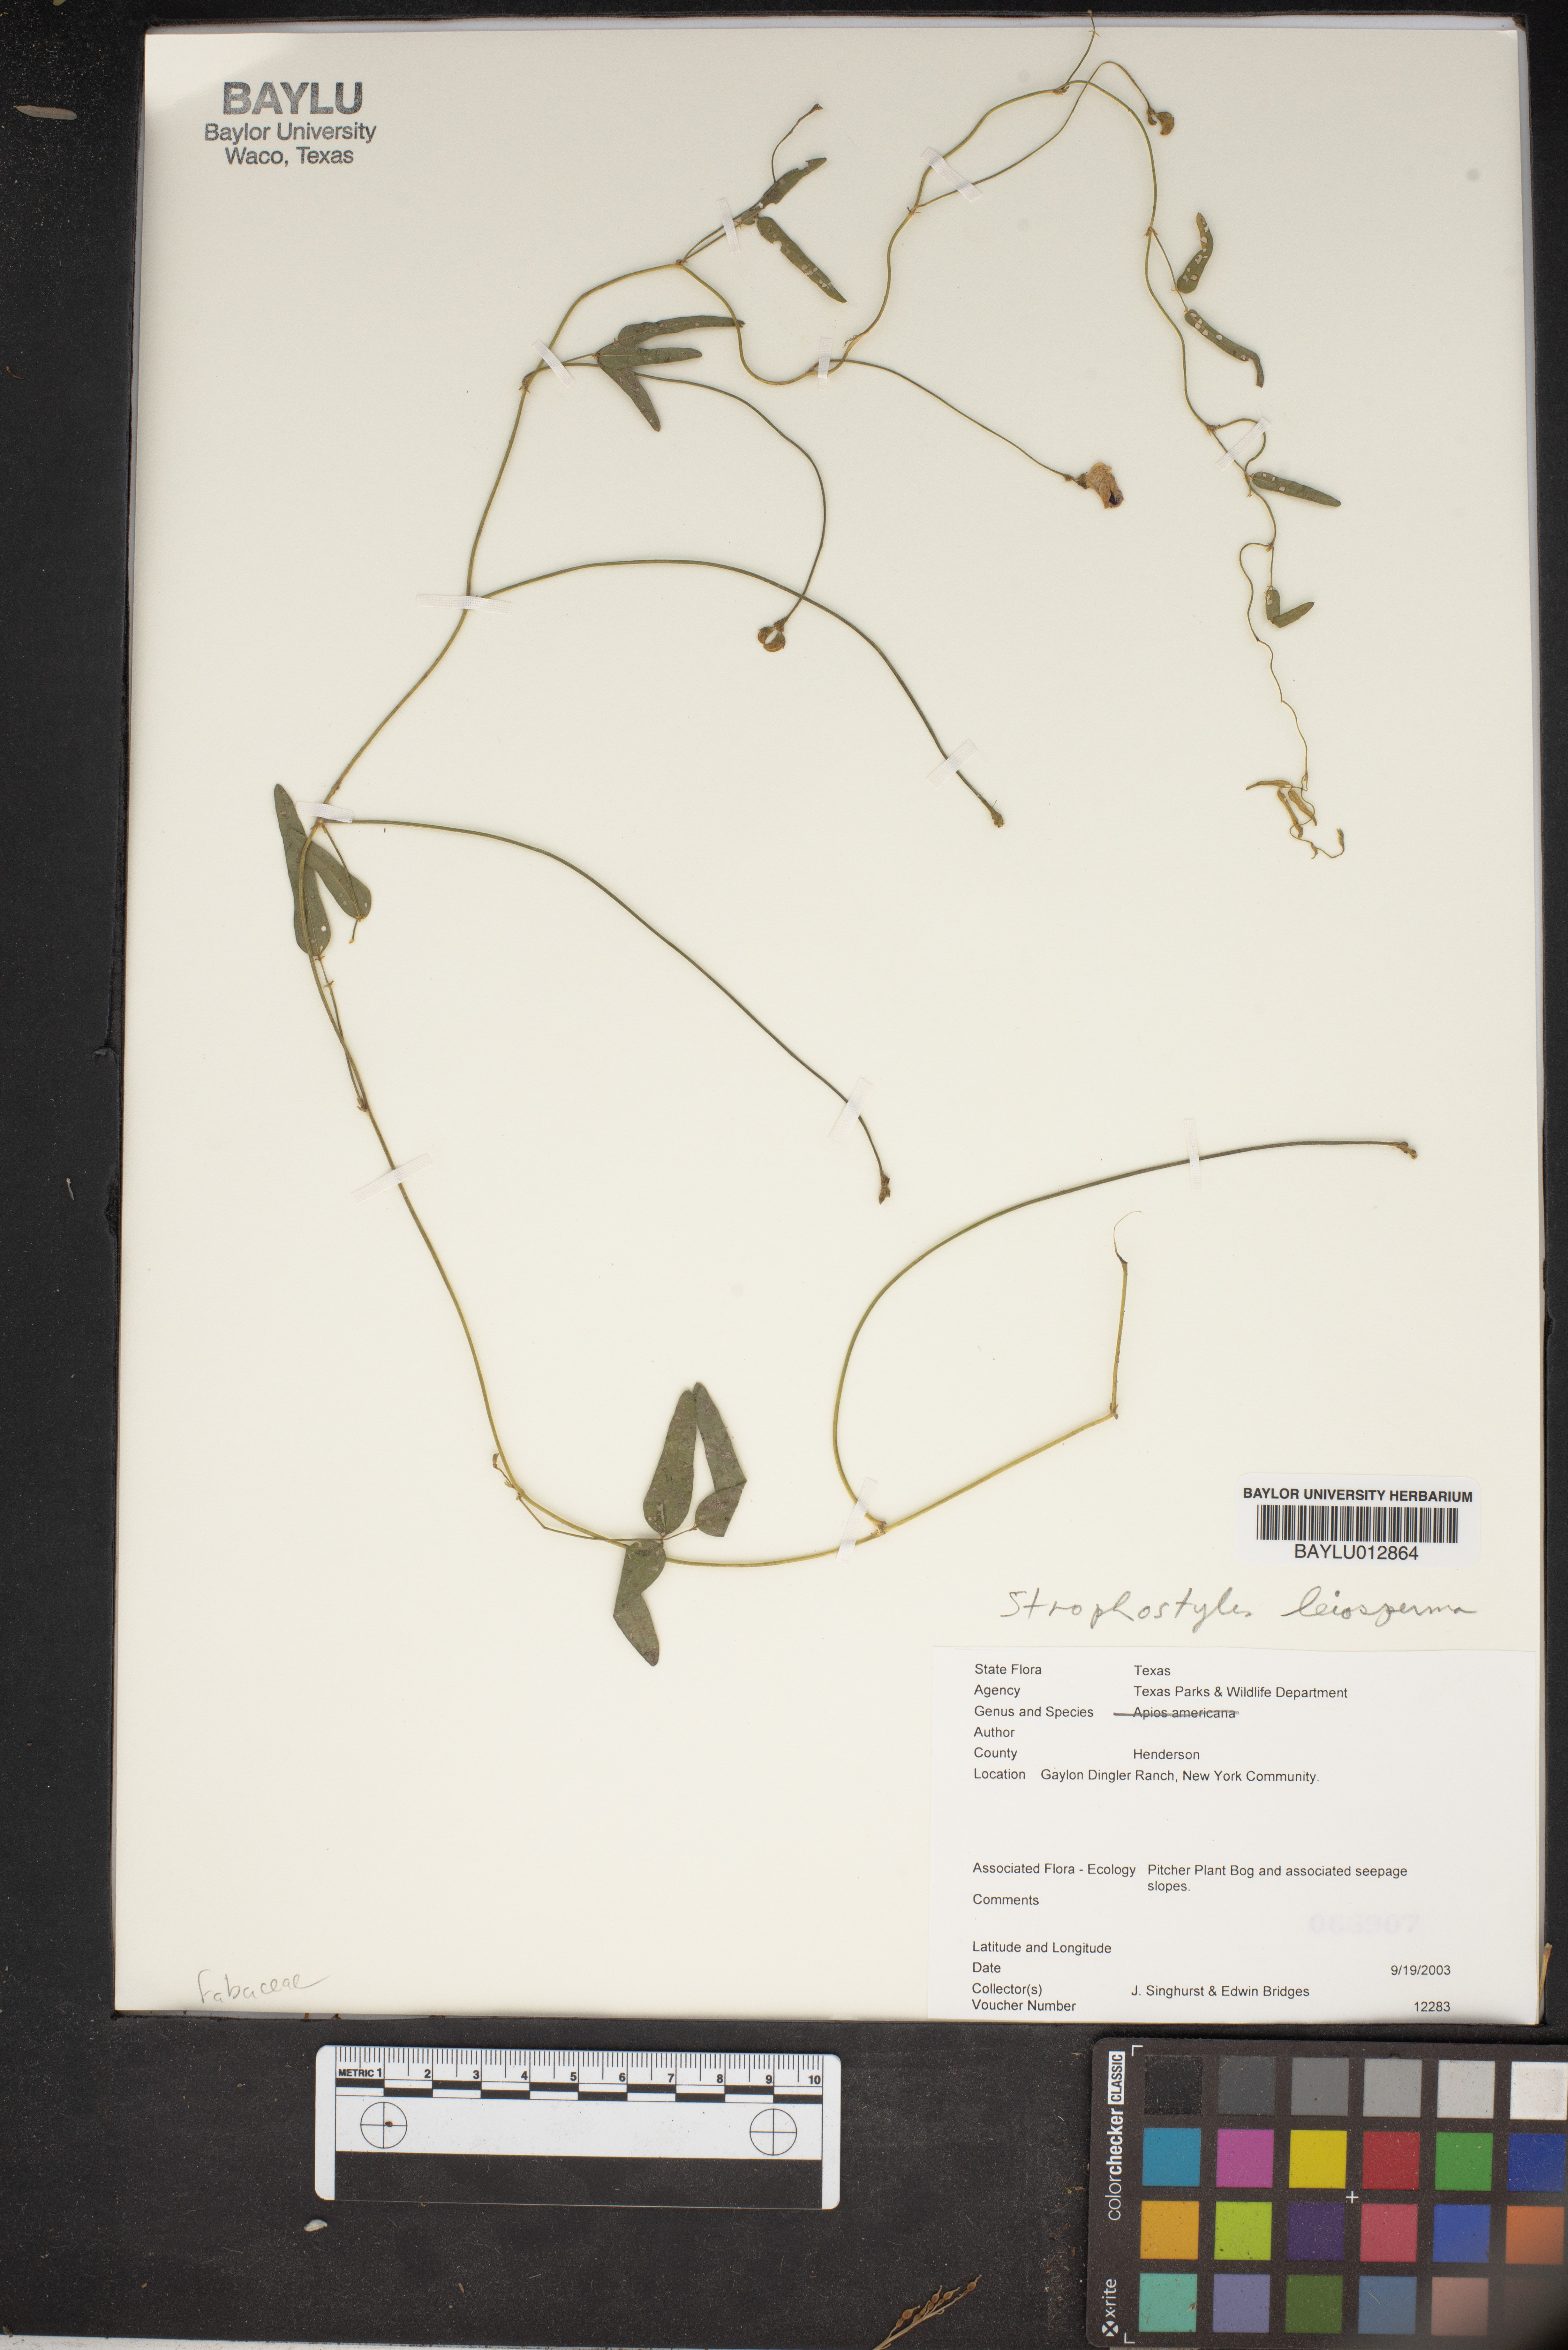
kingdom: Plantae
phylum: Tracheophyta
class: Magnoliopsida
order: Fabales
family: Fabaceae
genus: Strophostyles
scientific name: Strophostyles leiosperma
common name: Smooth-seed wild bean
